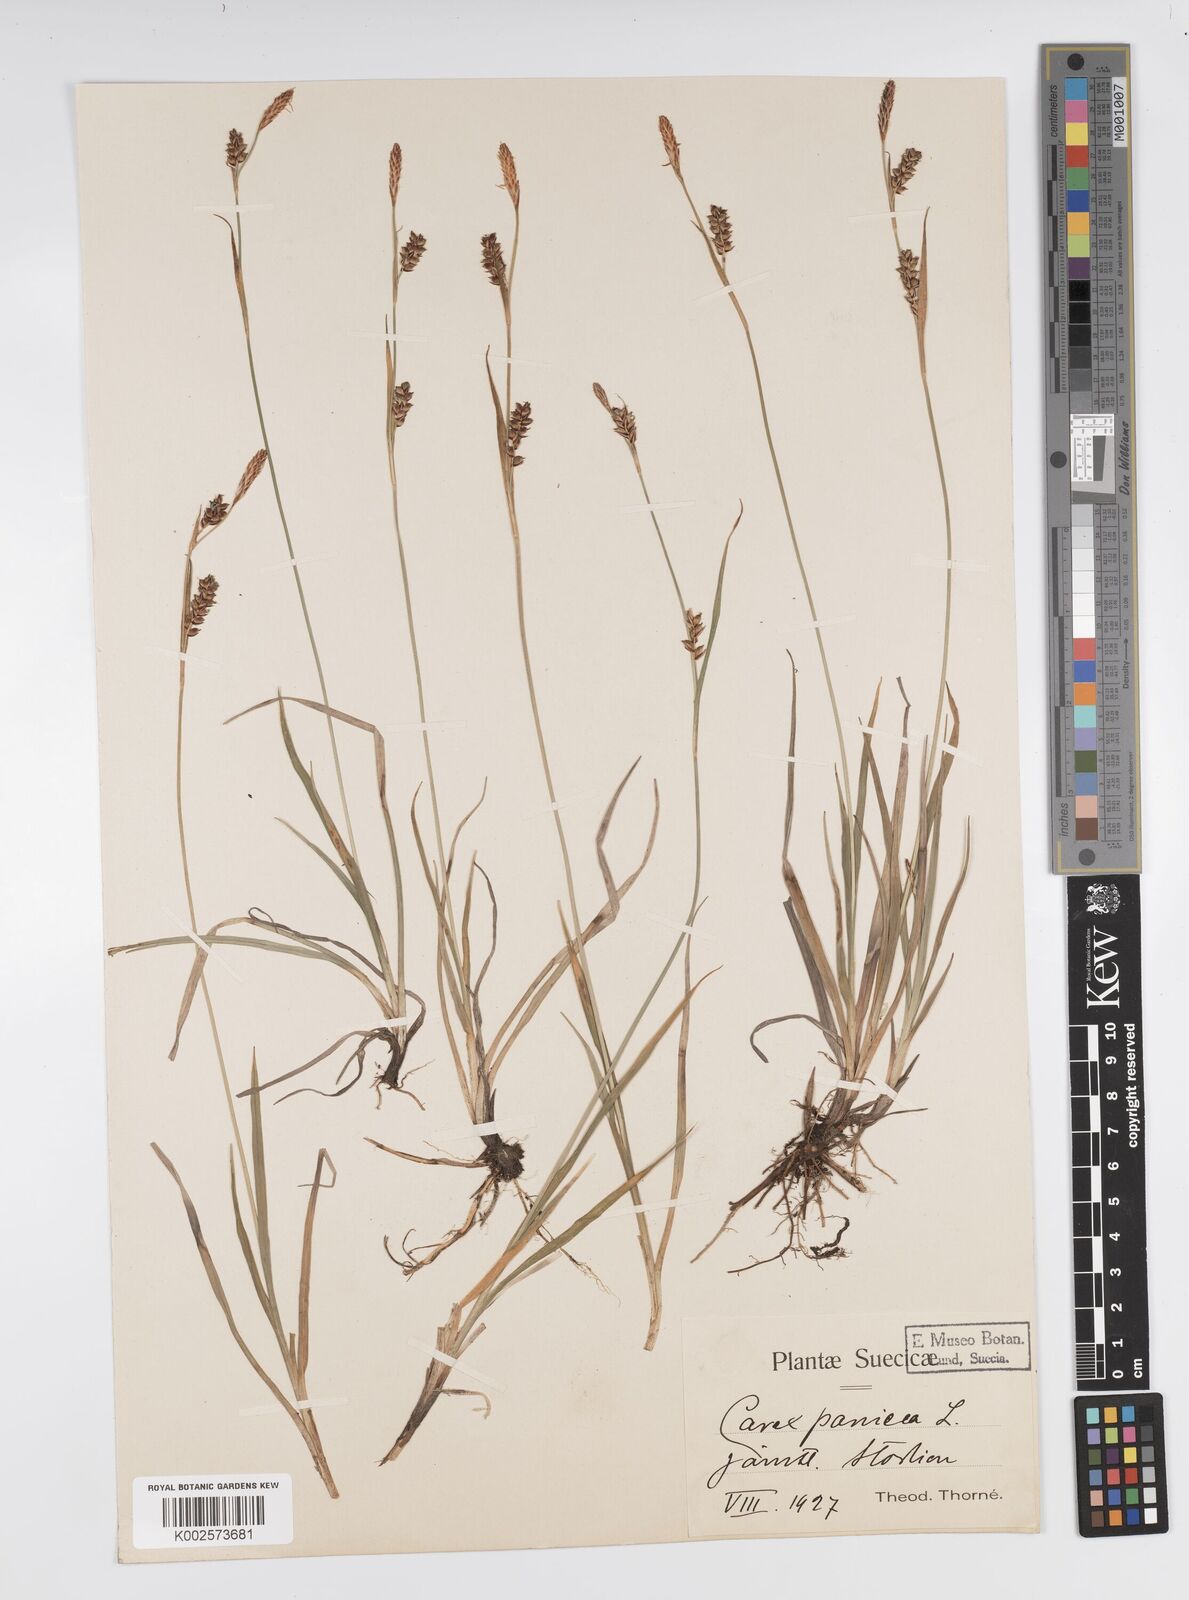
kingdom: Plantae
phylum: Tracheophyta
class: Liliopsida
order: Poales
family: Cyperaceae
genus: Carex
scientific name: Carex panicea
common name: Carnation sedge
